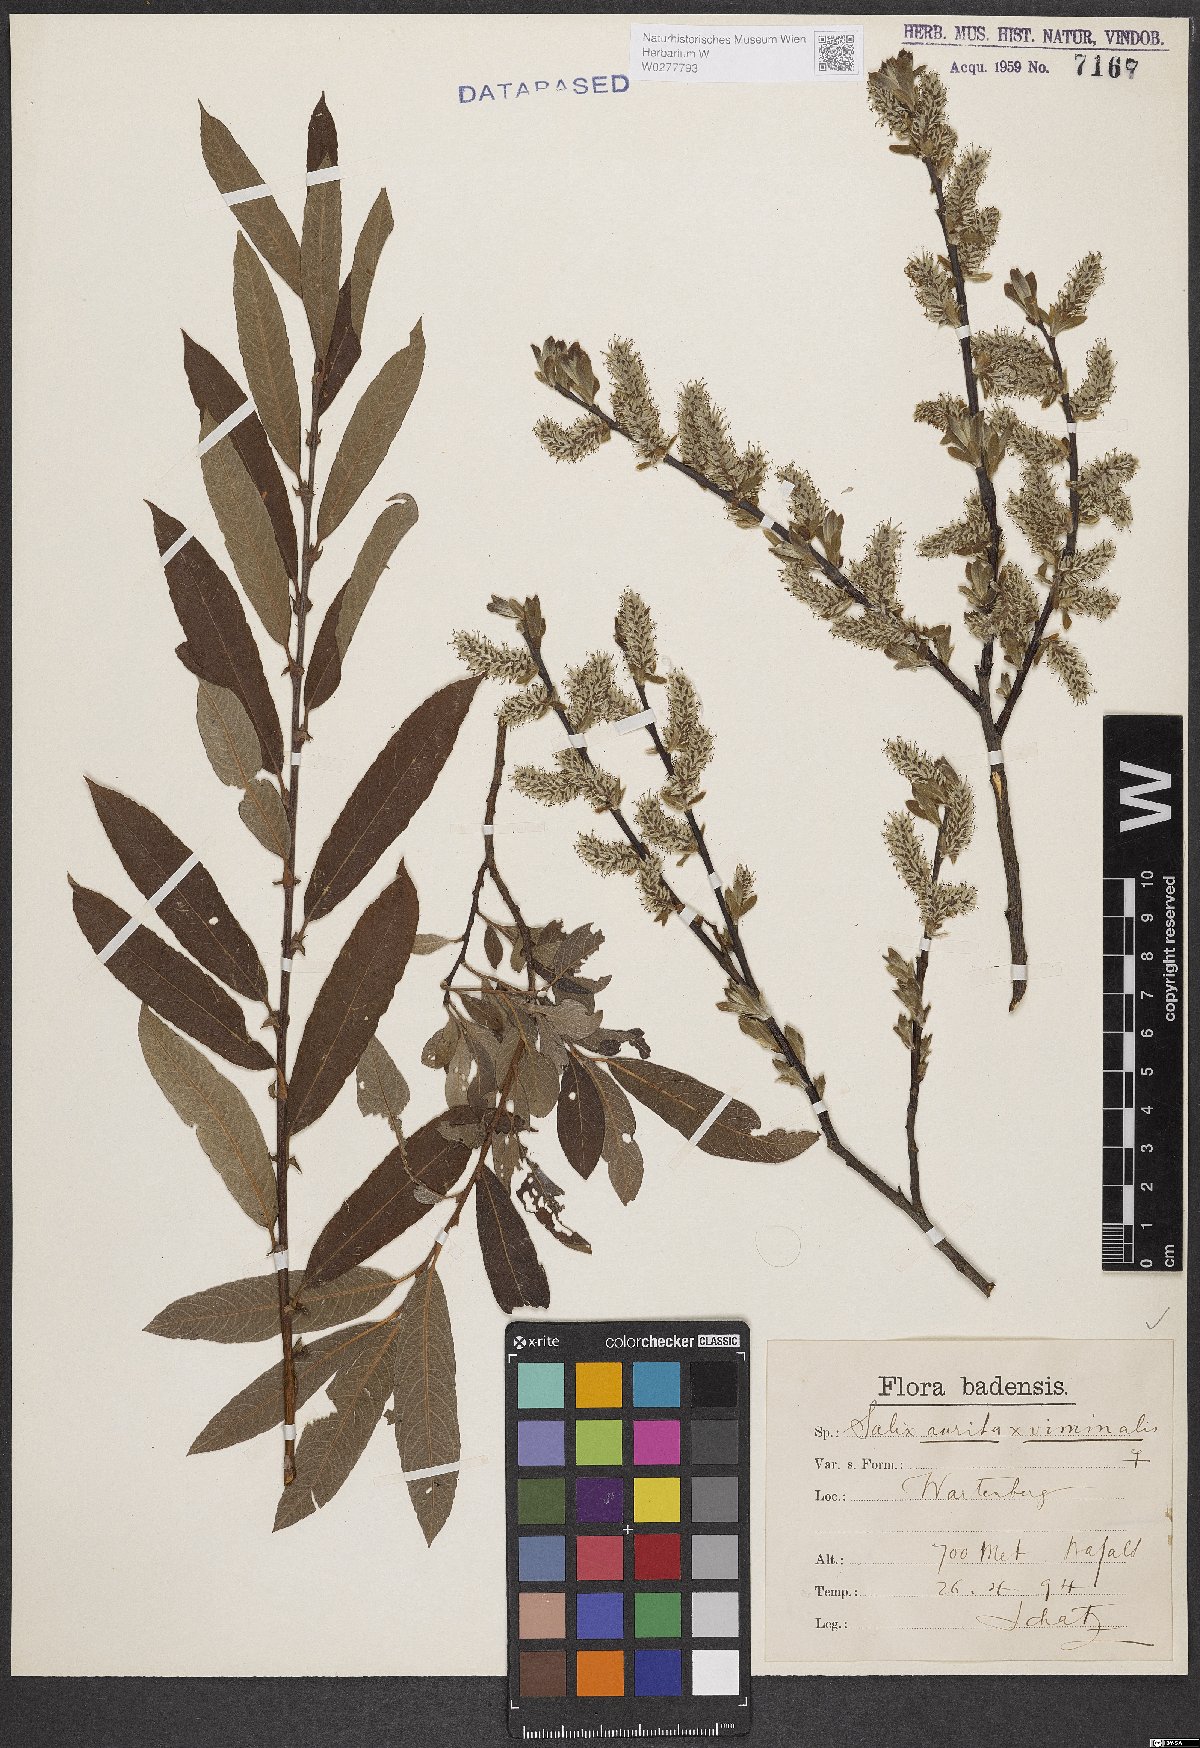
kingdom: Plantae
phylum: Tracheophyta
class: Magnoliopsida
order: Malpighiales
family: Salicaceae
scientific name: Salicaceae
